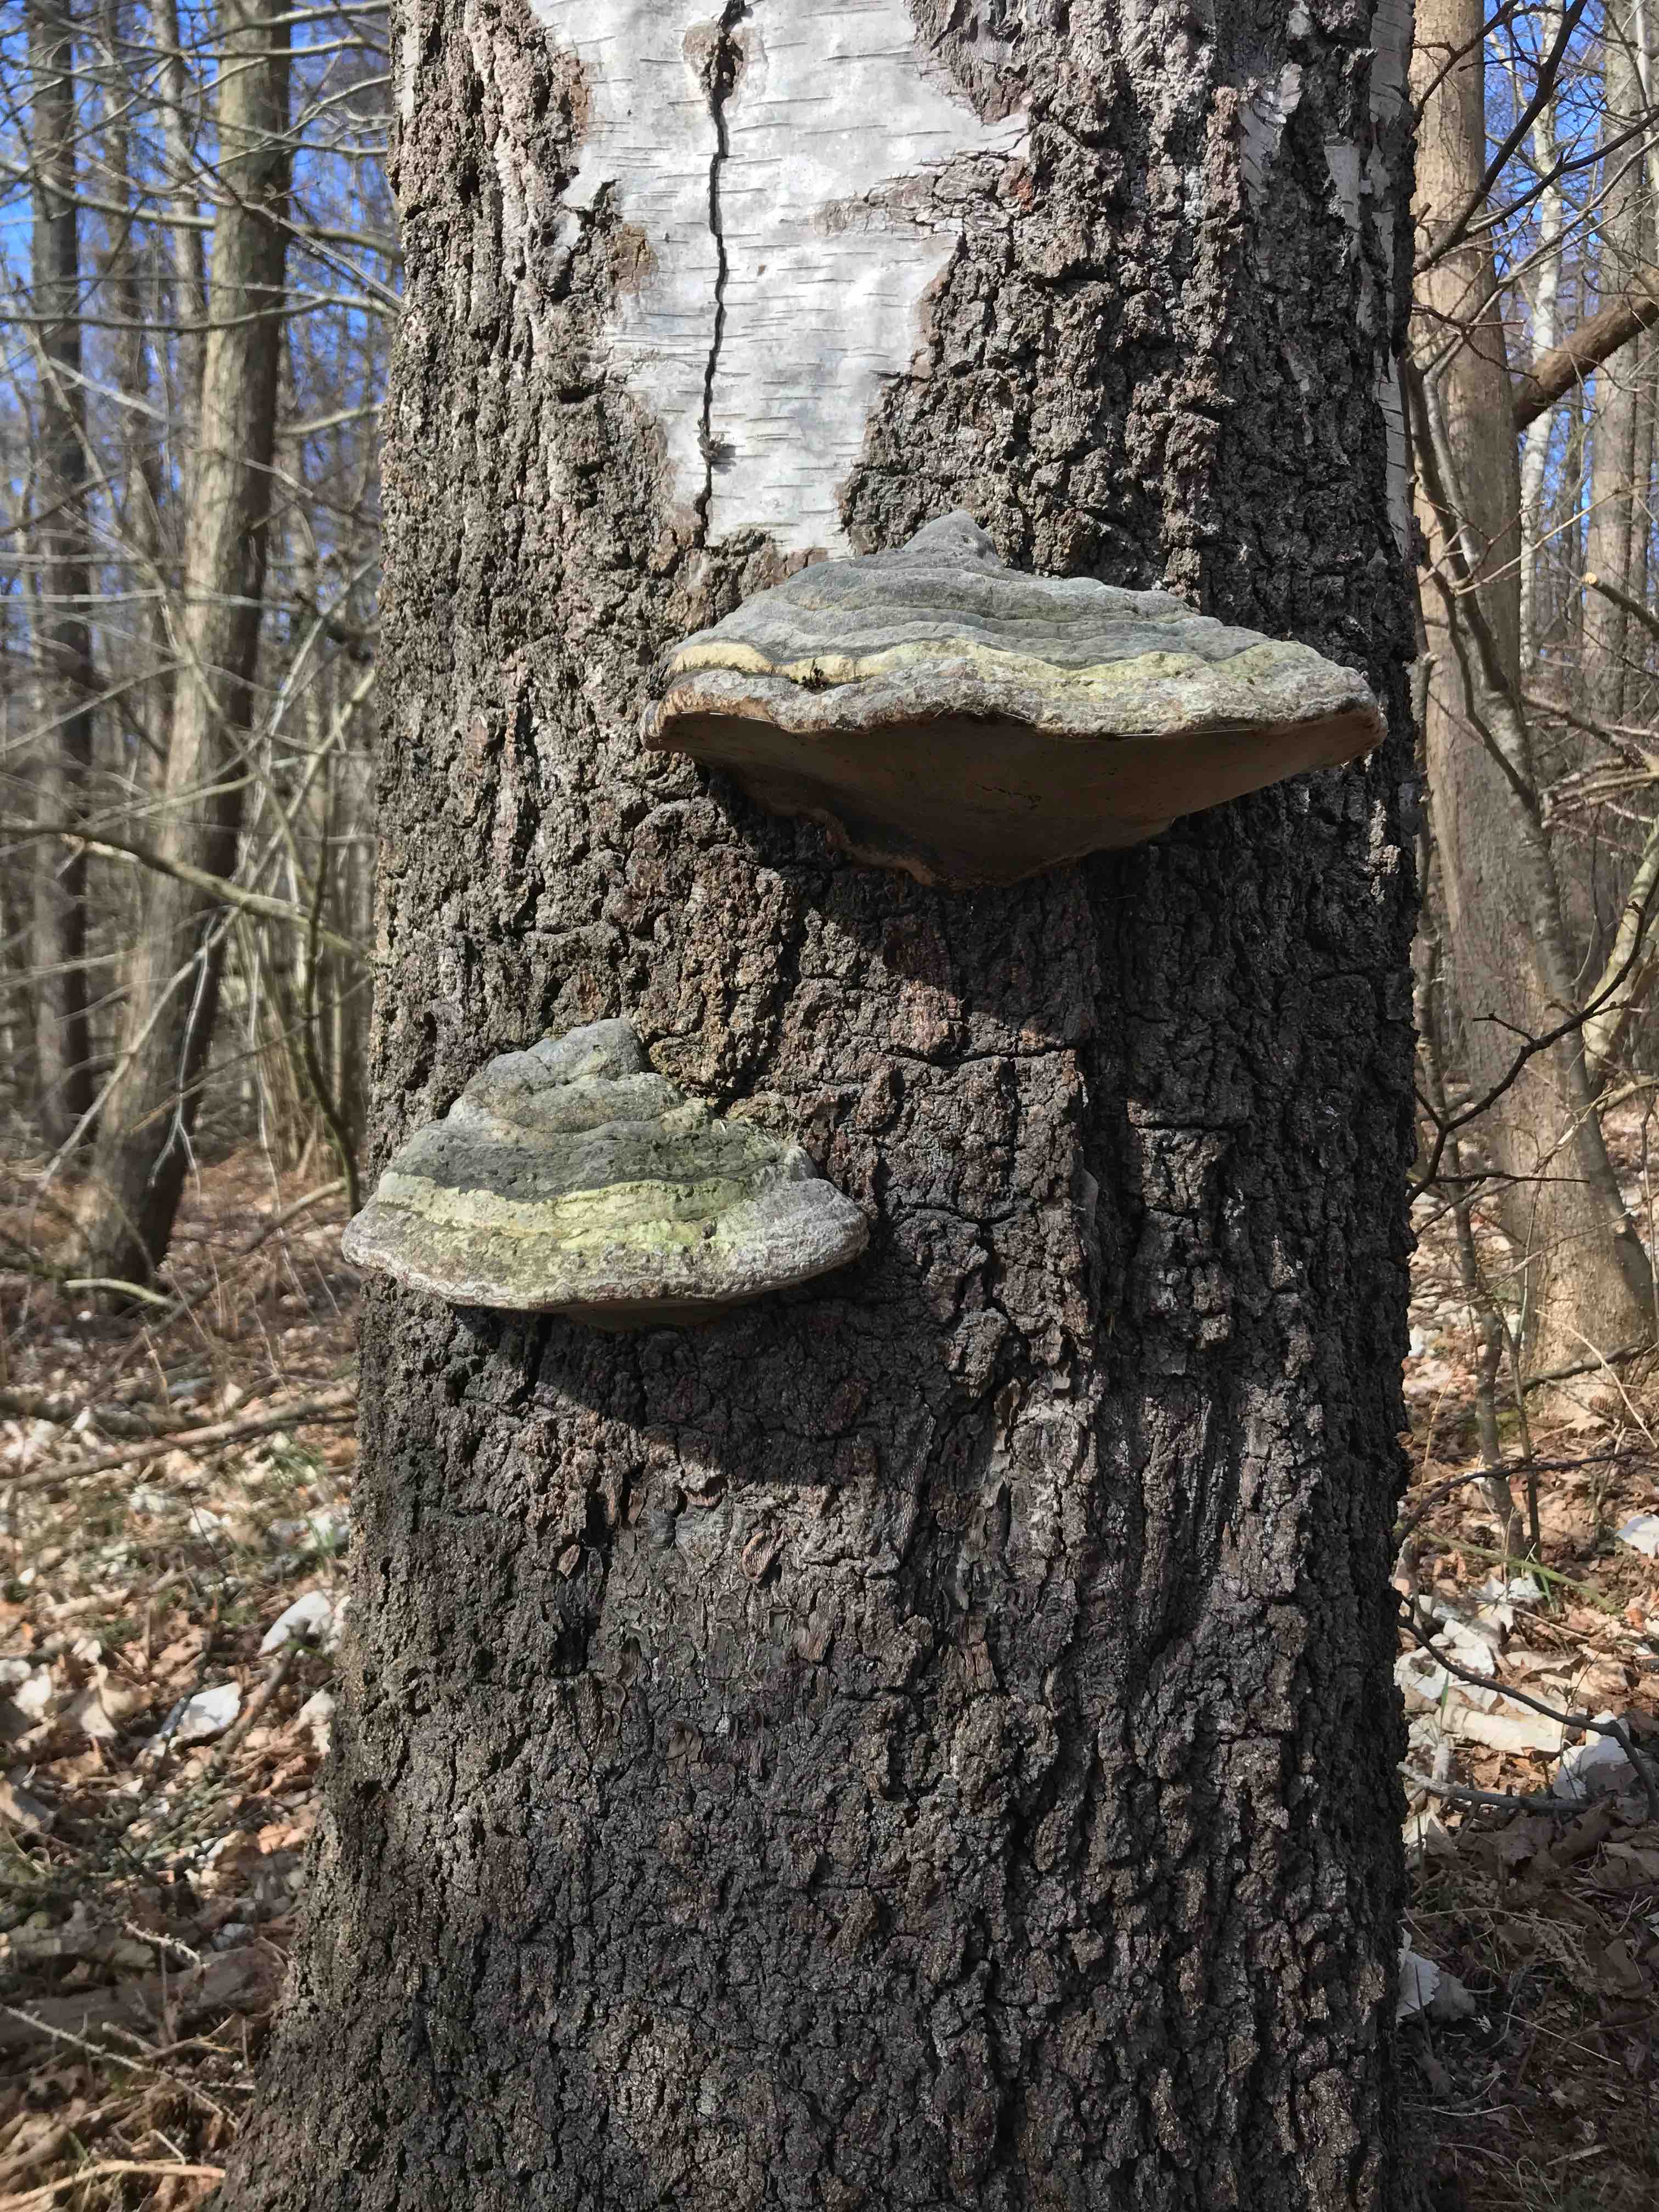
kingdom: Fungi
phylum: Basidiomycota
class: Agaricomycetes
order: Polyporales
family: Polyporaceae
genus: Fomes
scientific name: Fomes fomentarius
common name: tøndersvamp
